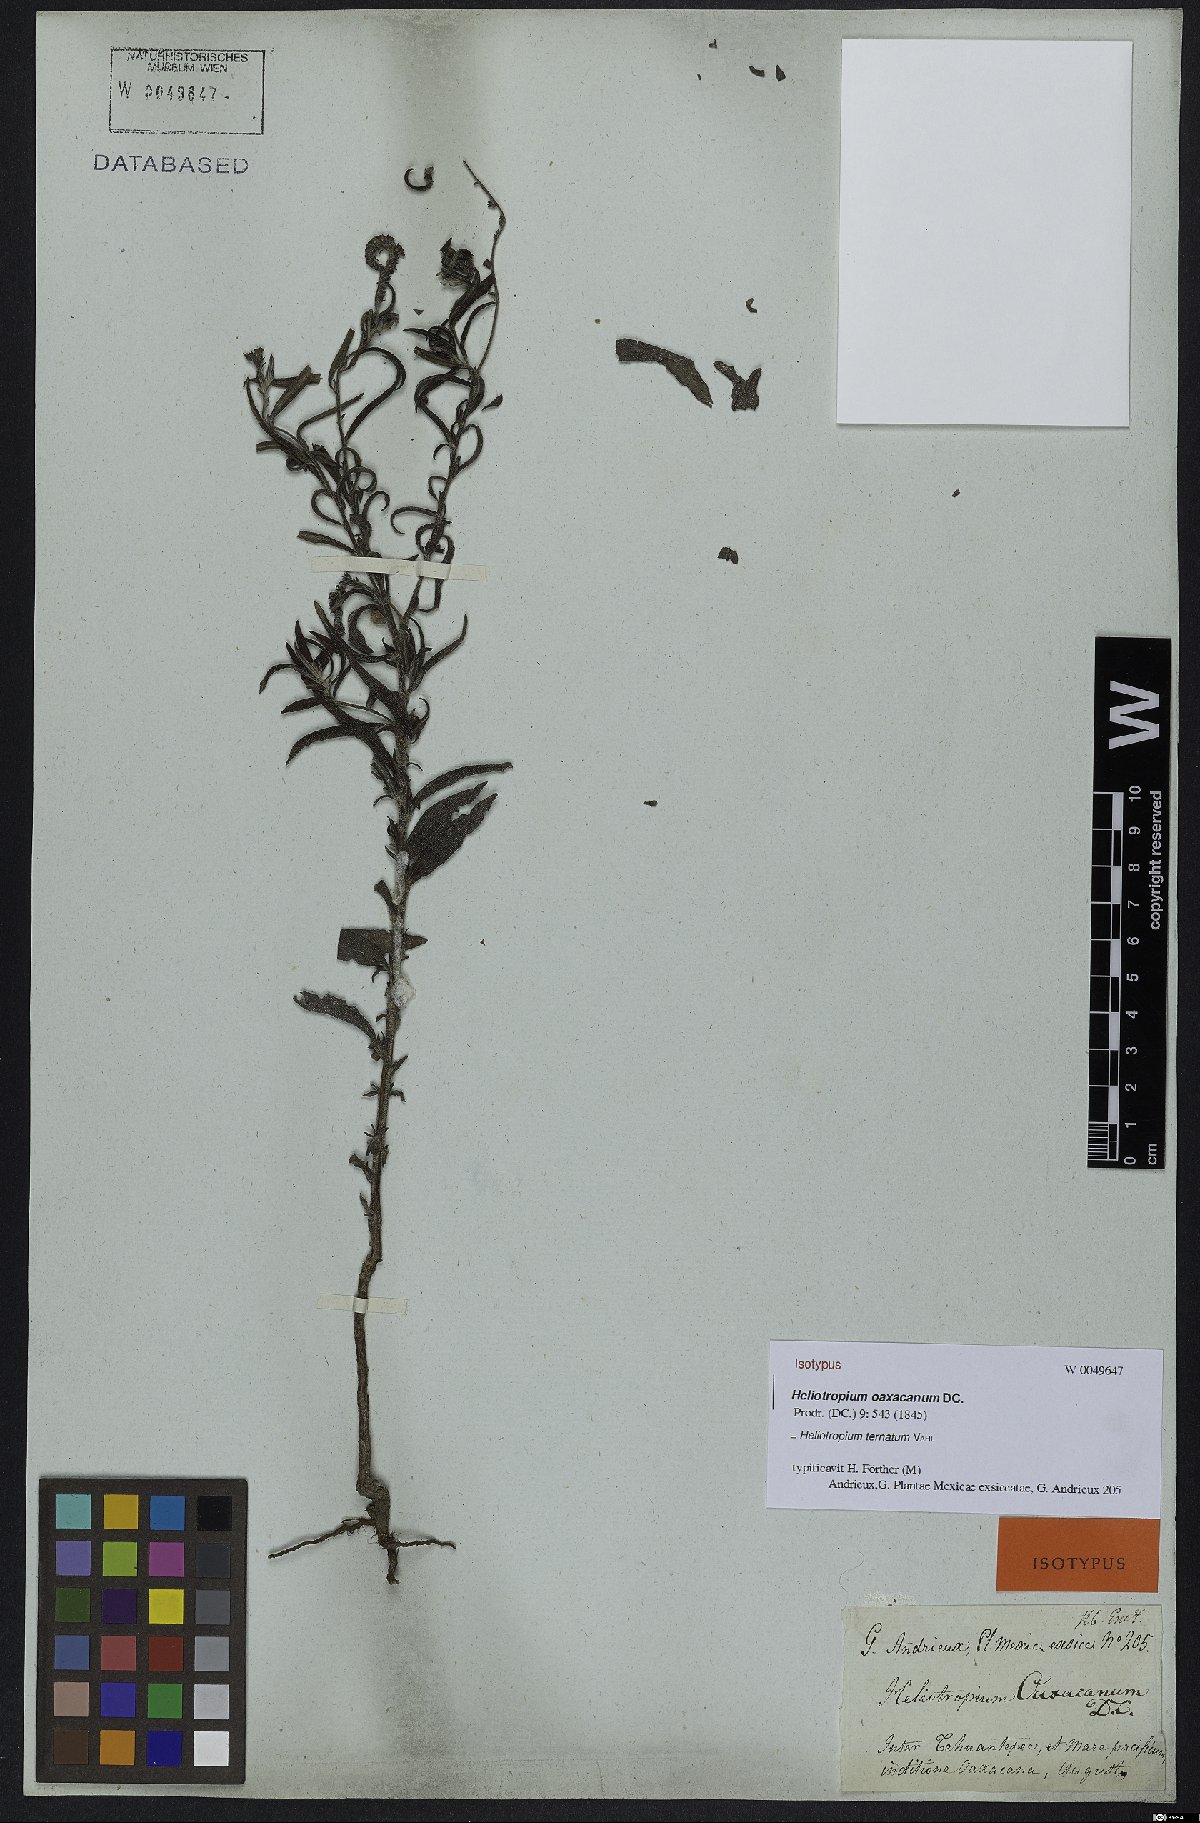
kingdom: Plantae
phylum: Tracheophyta
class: Magnoliopsida
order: Boraginales
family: Heliotropiaceae
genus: Euploca
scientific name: Euploca humilis
